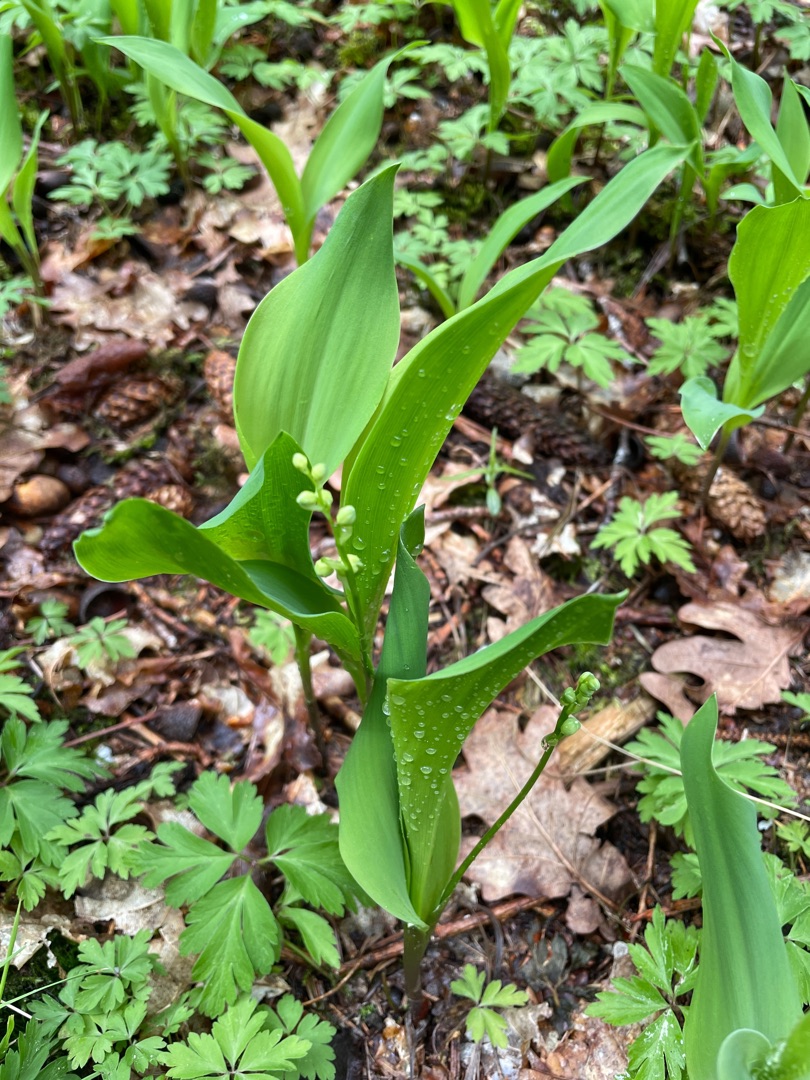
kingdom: Plantae
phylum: Tracheophyta
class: Liliopsida
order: Asparagales
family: Asparagaceae
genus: Convallaria
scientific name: Convallaria majalis
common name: Liljekonval
